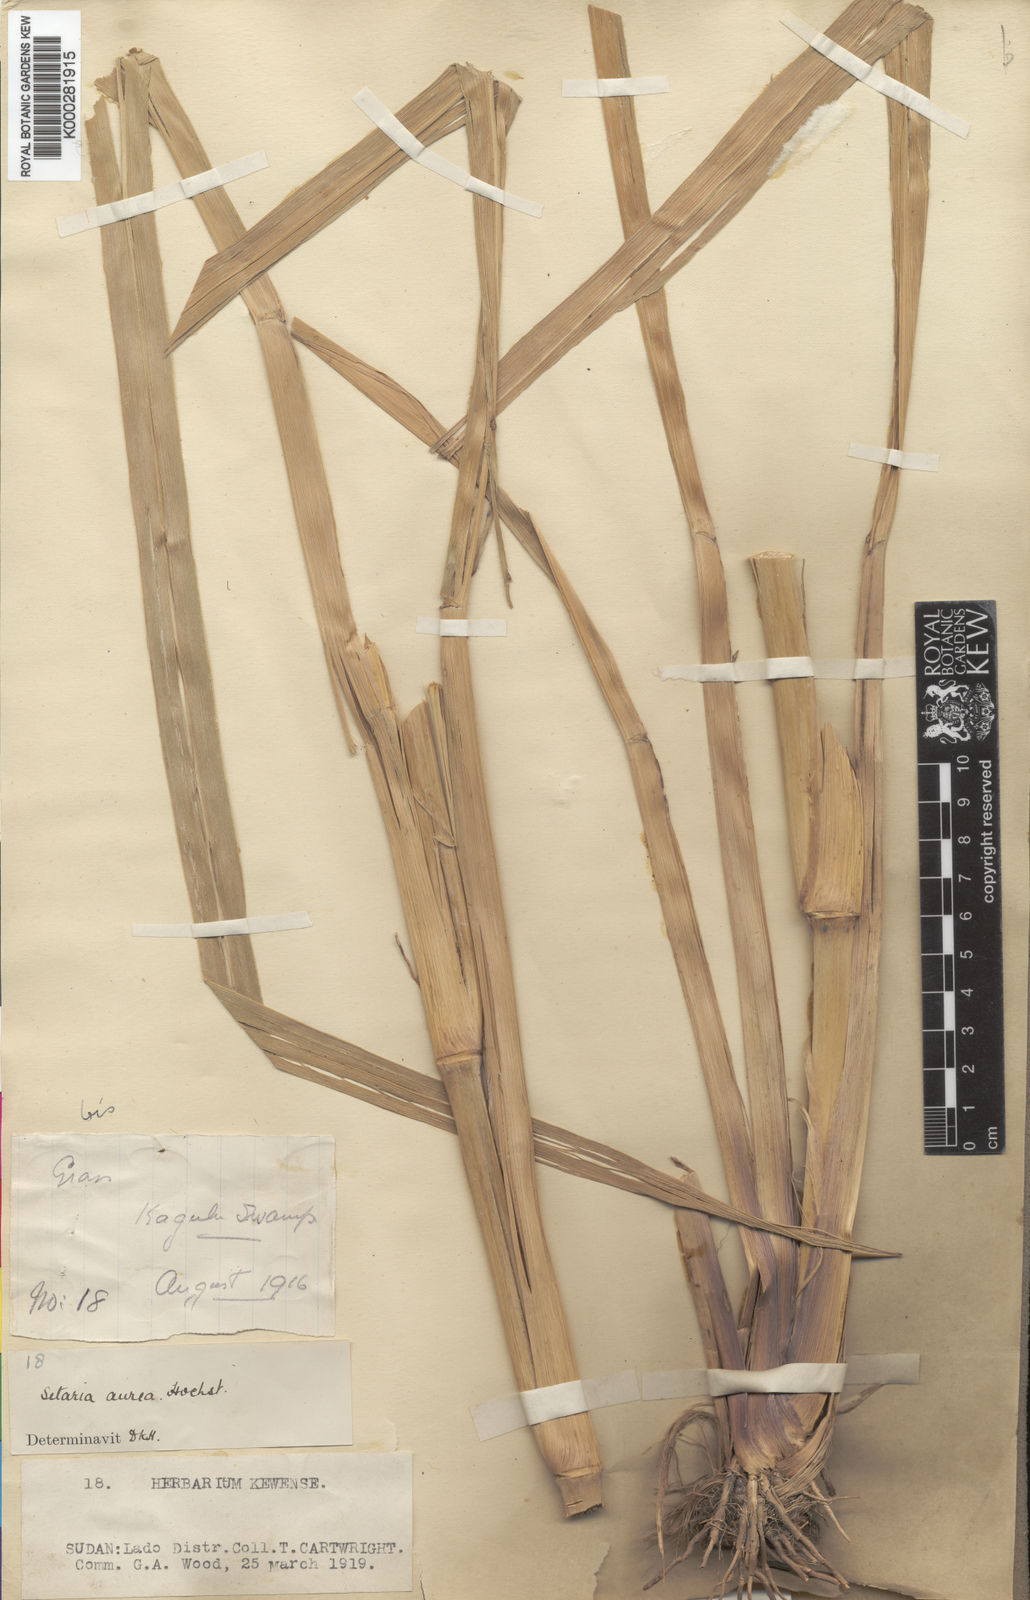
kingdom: Plantae
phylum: Tracheophyta
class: Liliopsida
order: Poales
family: Poaceae
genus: Setaria
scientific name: Setaria sphacelata
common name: African bristlegrass
